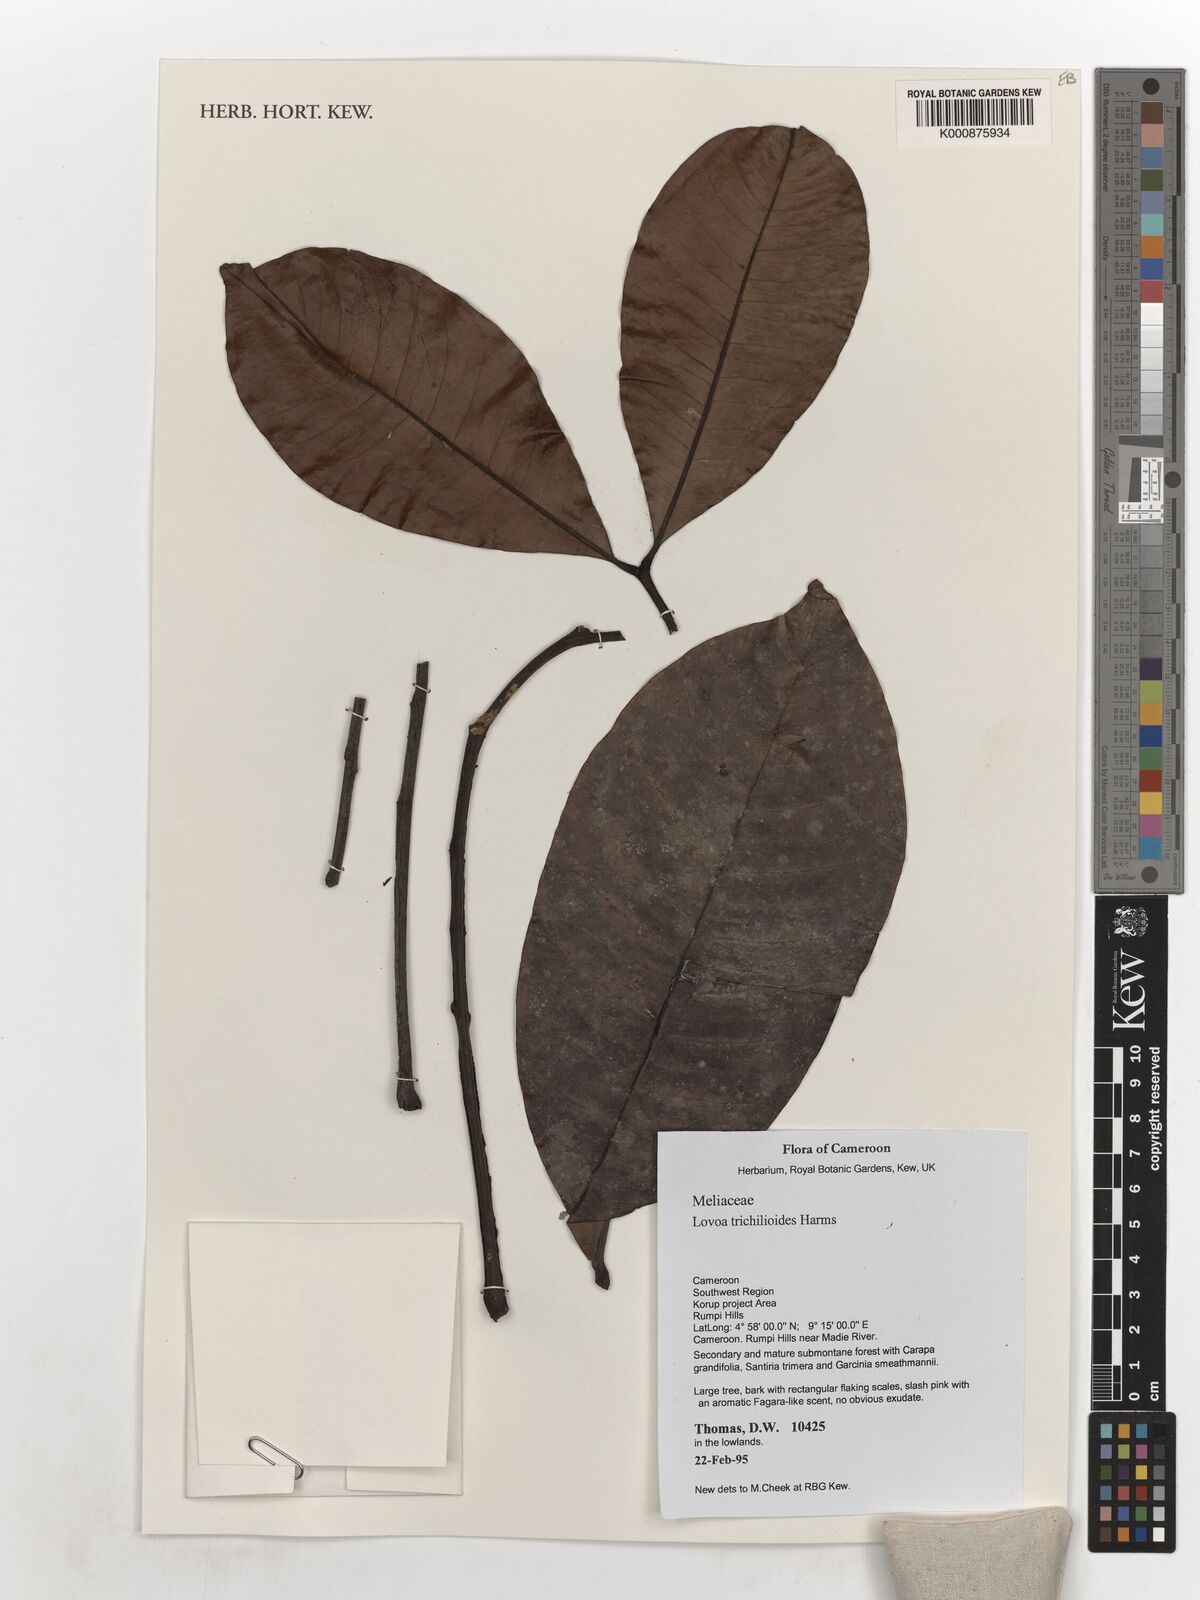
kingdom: Plantae
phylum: Tracheophyta
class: Magnoliopsida
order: Sapindales
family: Meliaceae
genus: Lovoa
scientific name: Lovoa trichilioides
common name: Congowood
